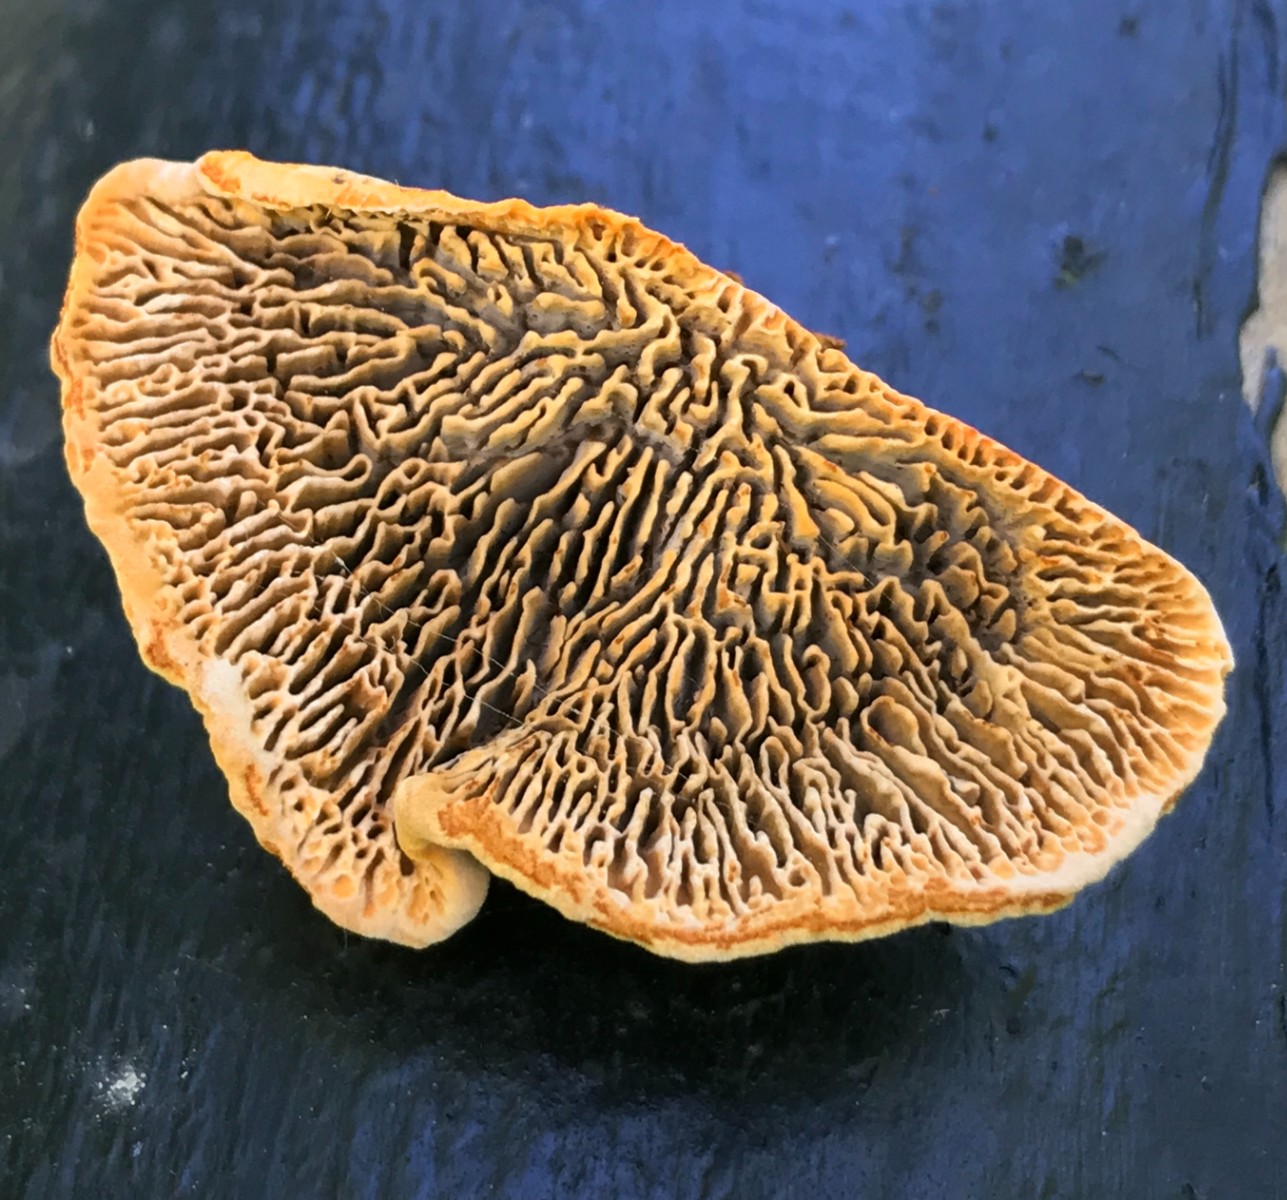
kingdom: Fungi
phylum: Basidiomycota
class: Agaricomycetes
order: Gloeophyllales
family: Gloeophyllaceae
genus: Gloeophyllum
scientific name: Gloeophyllum sepiarium
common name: fyrre-korkhat
